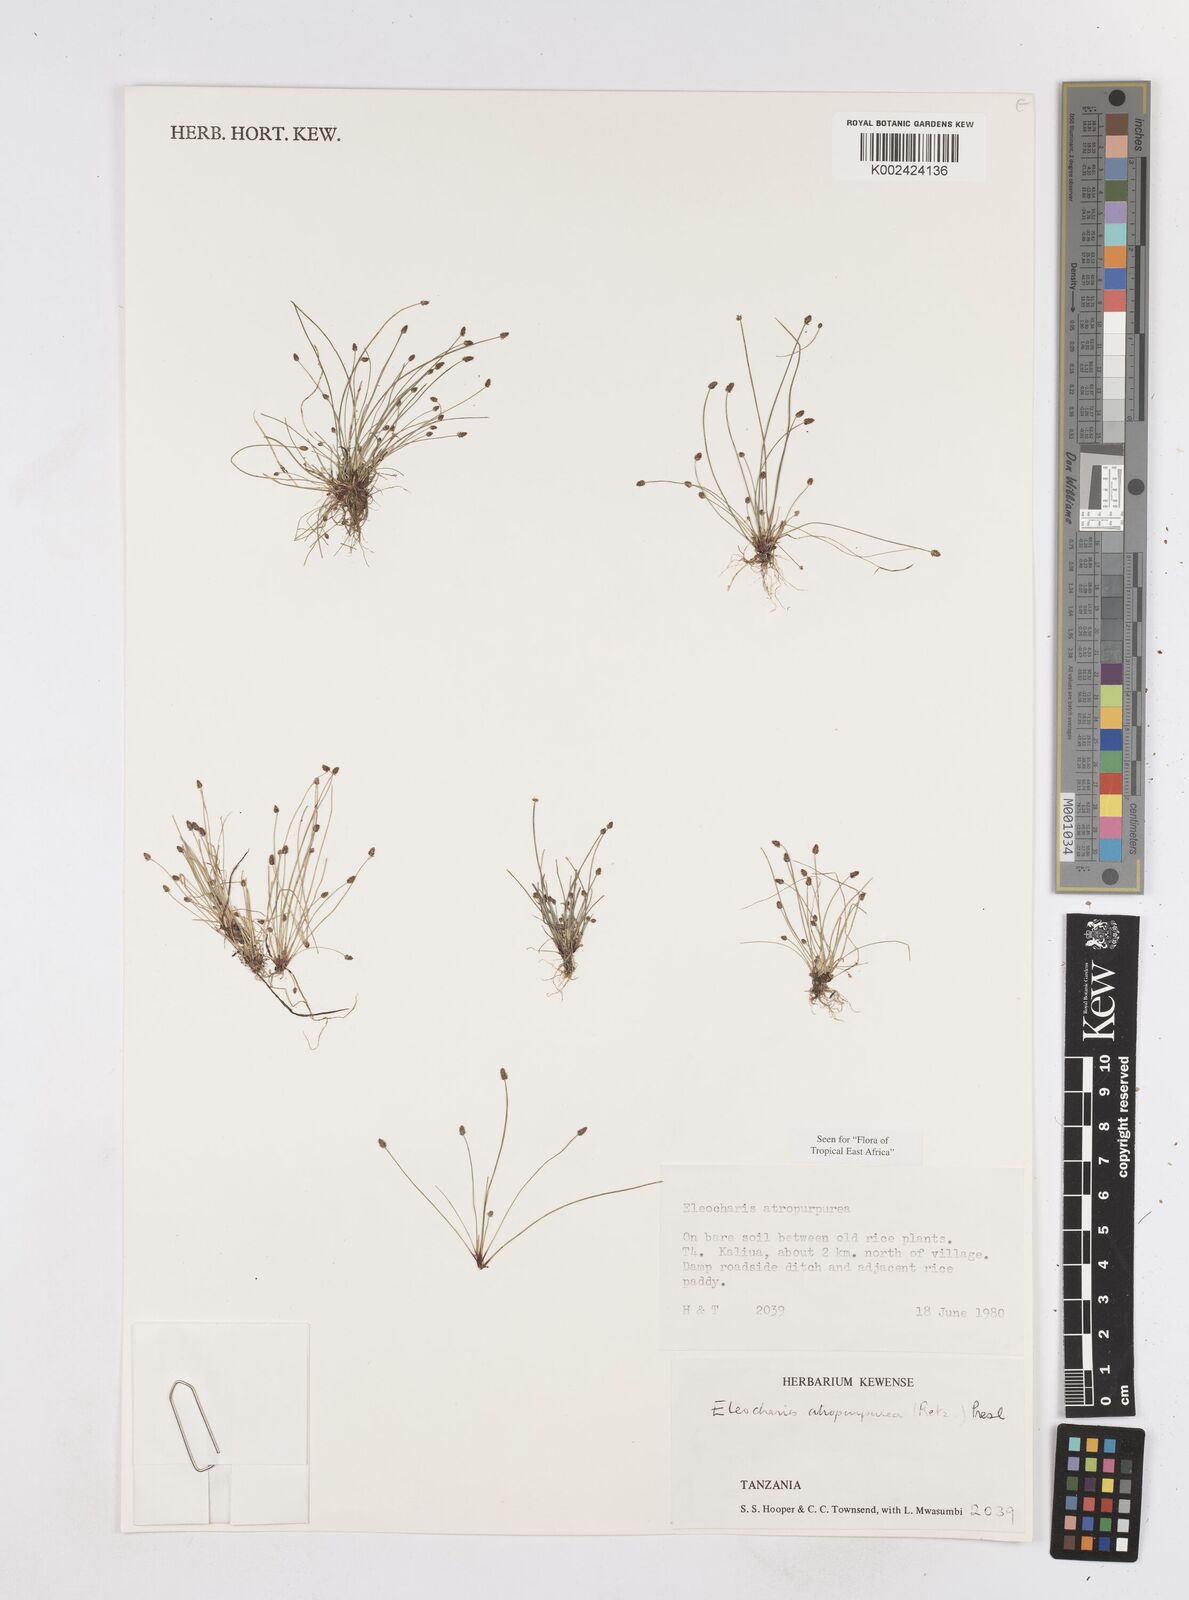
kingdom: Plantae
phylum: Tracheophyta
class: Liliopsida
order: Poales
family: Cyperaceae
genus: Eleocharis
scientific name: Eleocharis atropurpurea
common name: Purple spikerush
